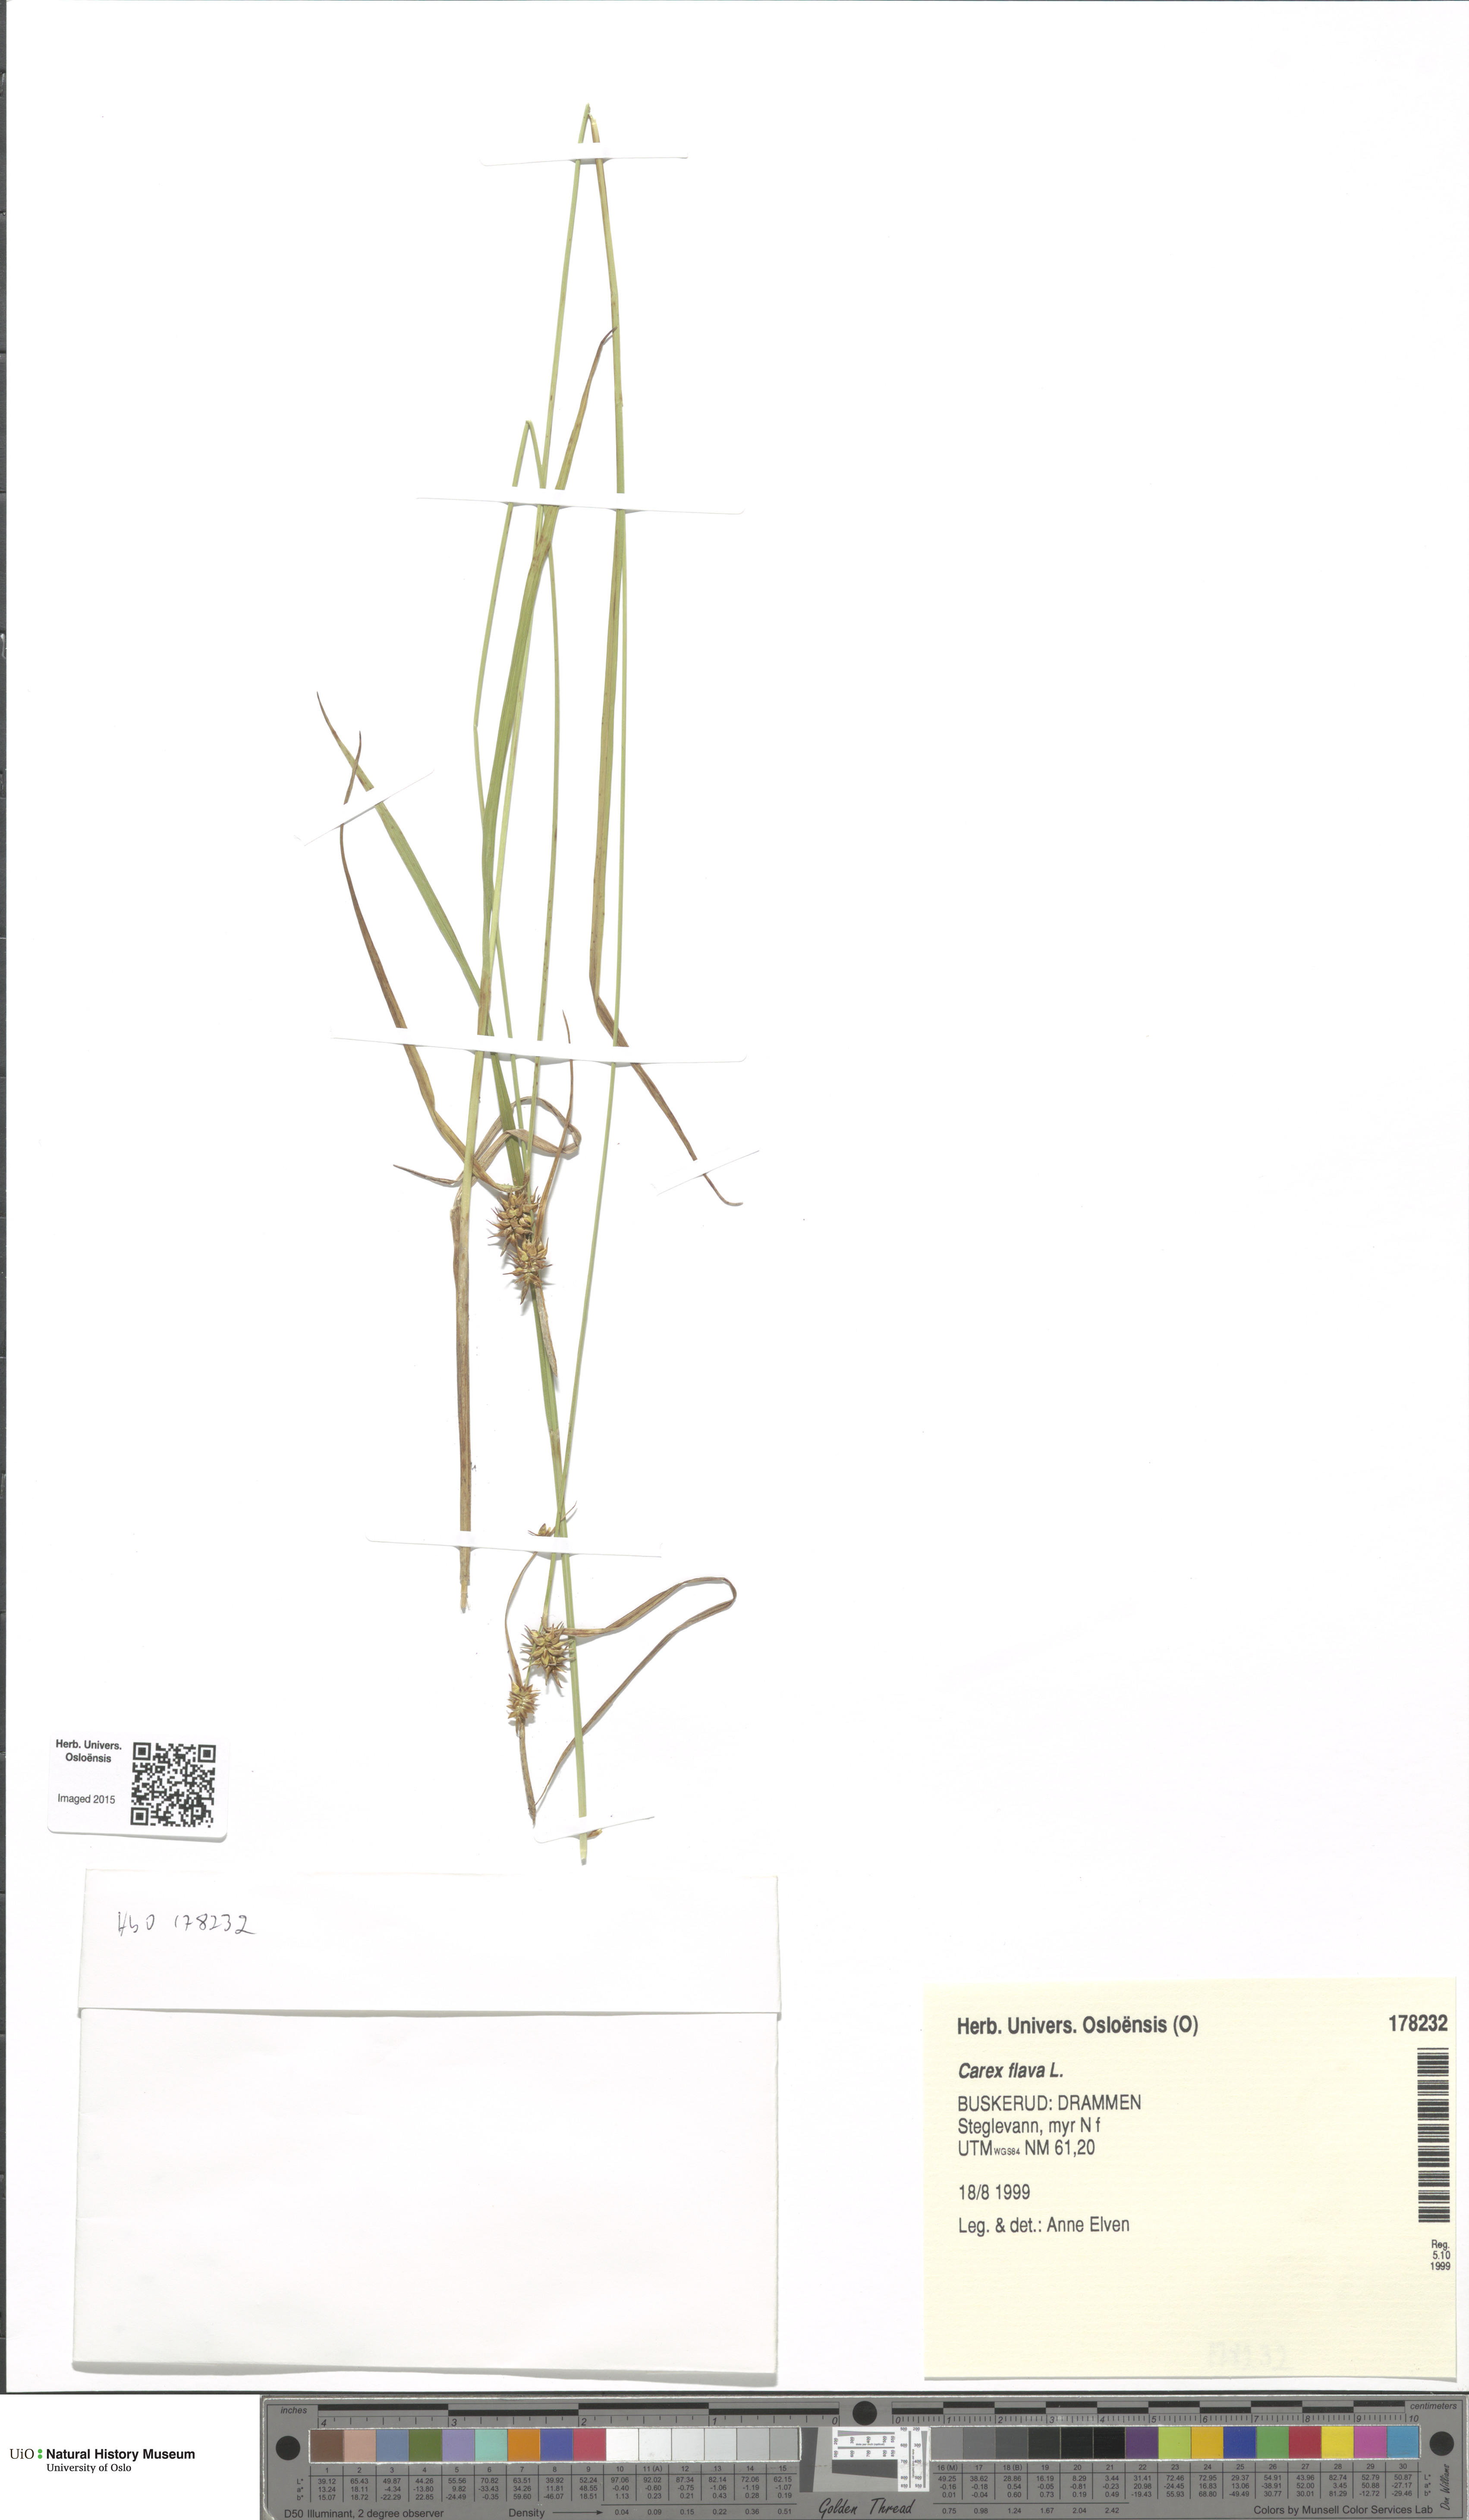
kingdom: Plantae
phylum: Tracheophyta
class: Liliopsida
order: Poales
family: Cyperaceae
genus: Carex
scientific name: Carex flava
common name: Large yellow-sedge
